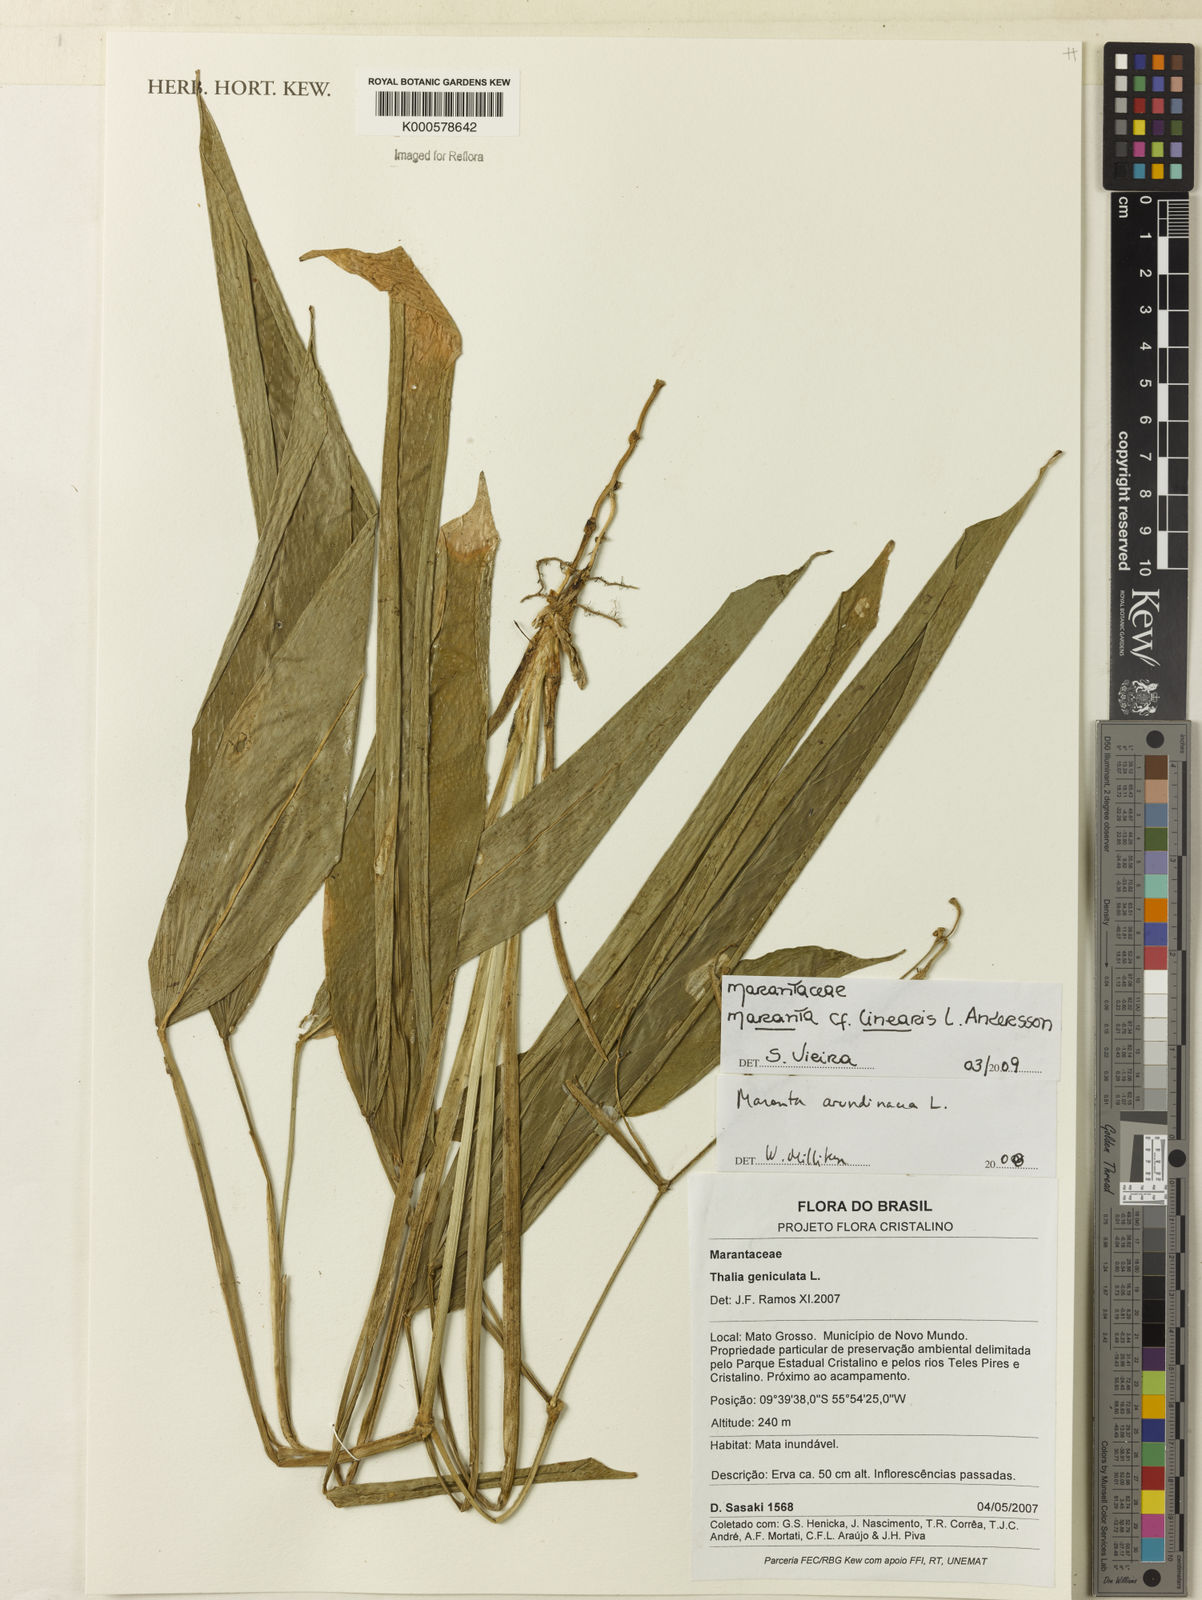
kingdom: Plantae
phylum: Tracheophyta
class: Liliopsida
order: Zingiberales
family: Marantaceae
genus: Maranta
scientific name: Maranta linearis
